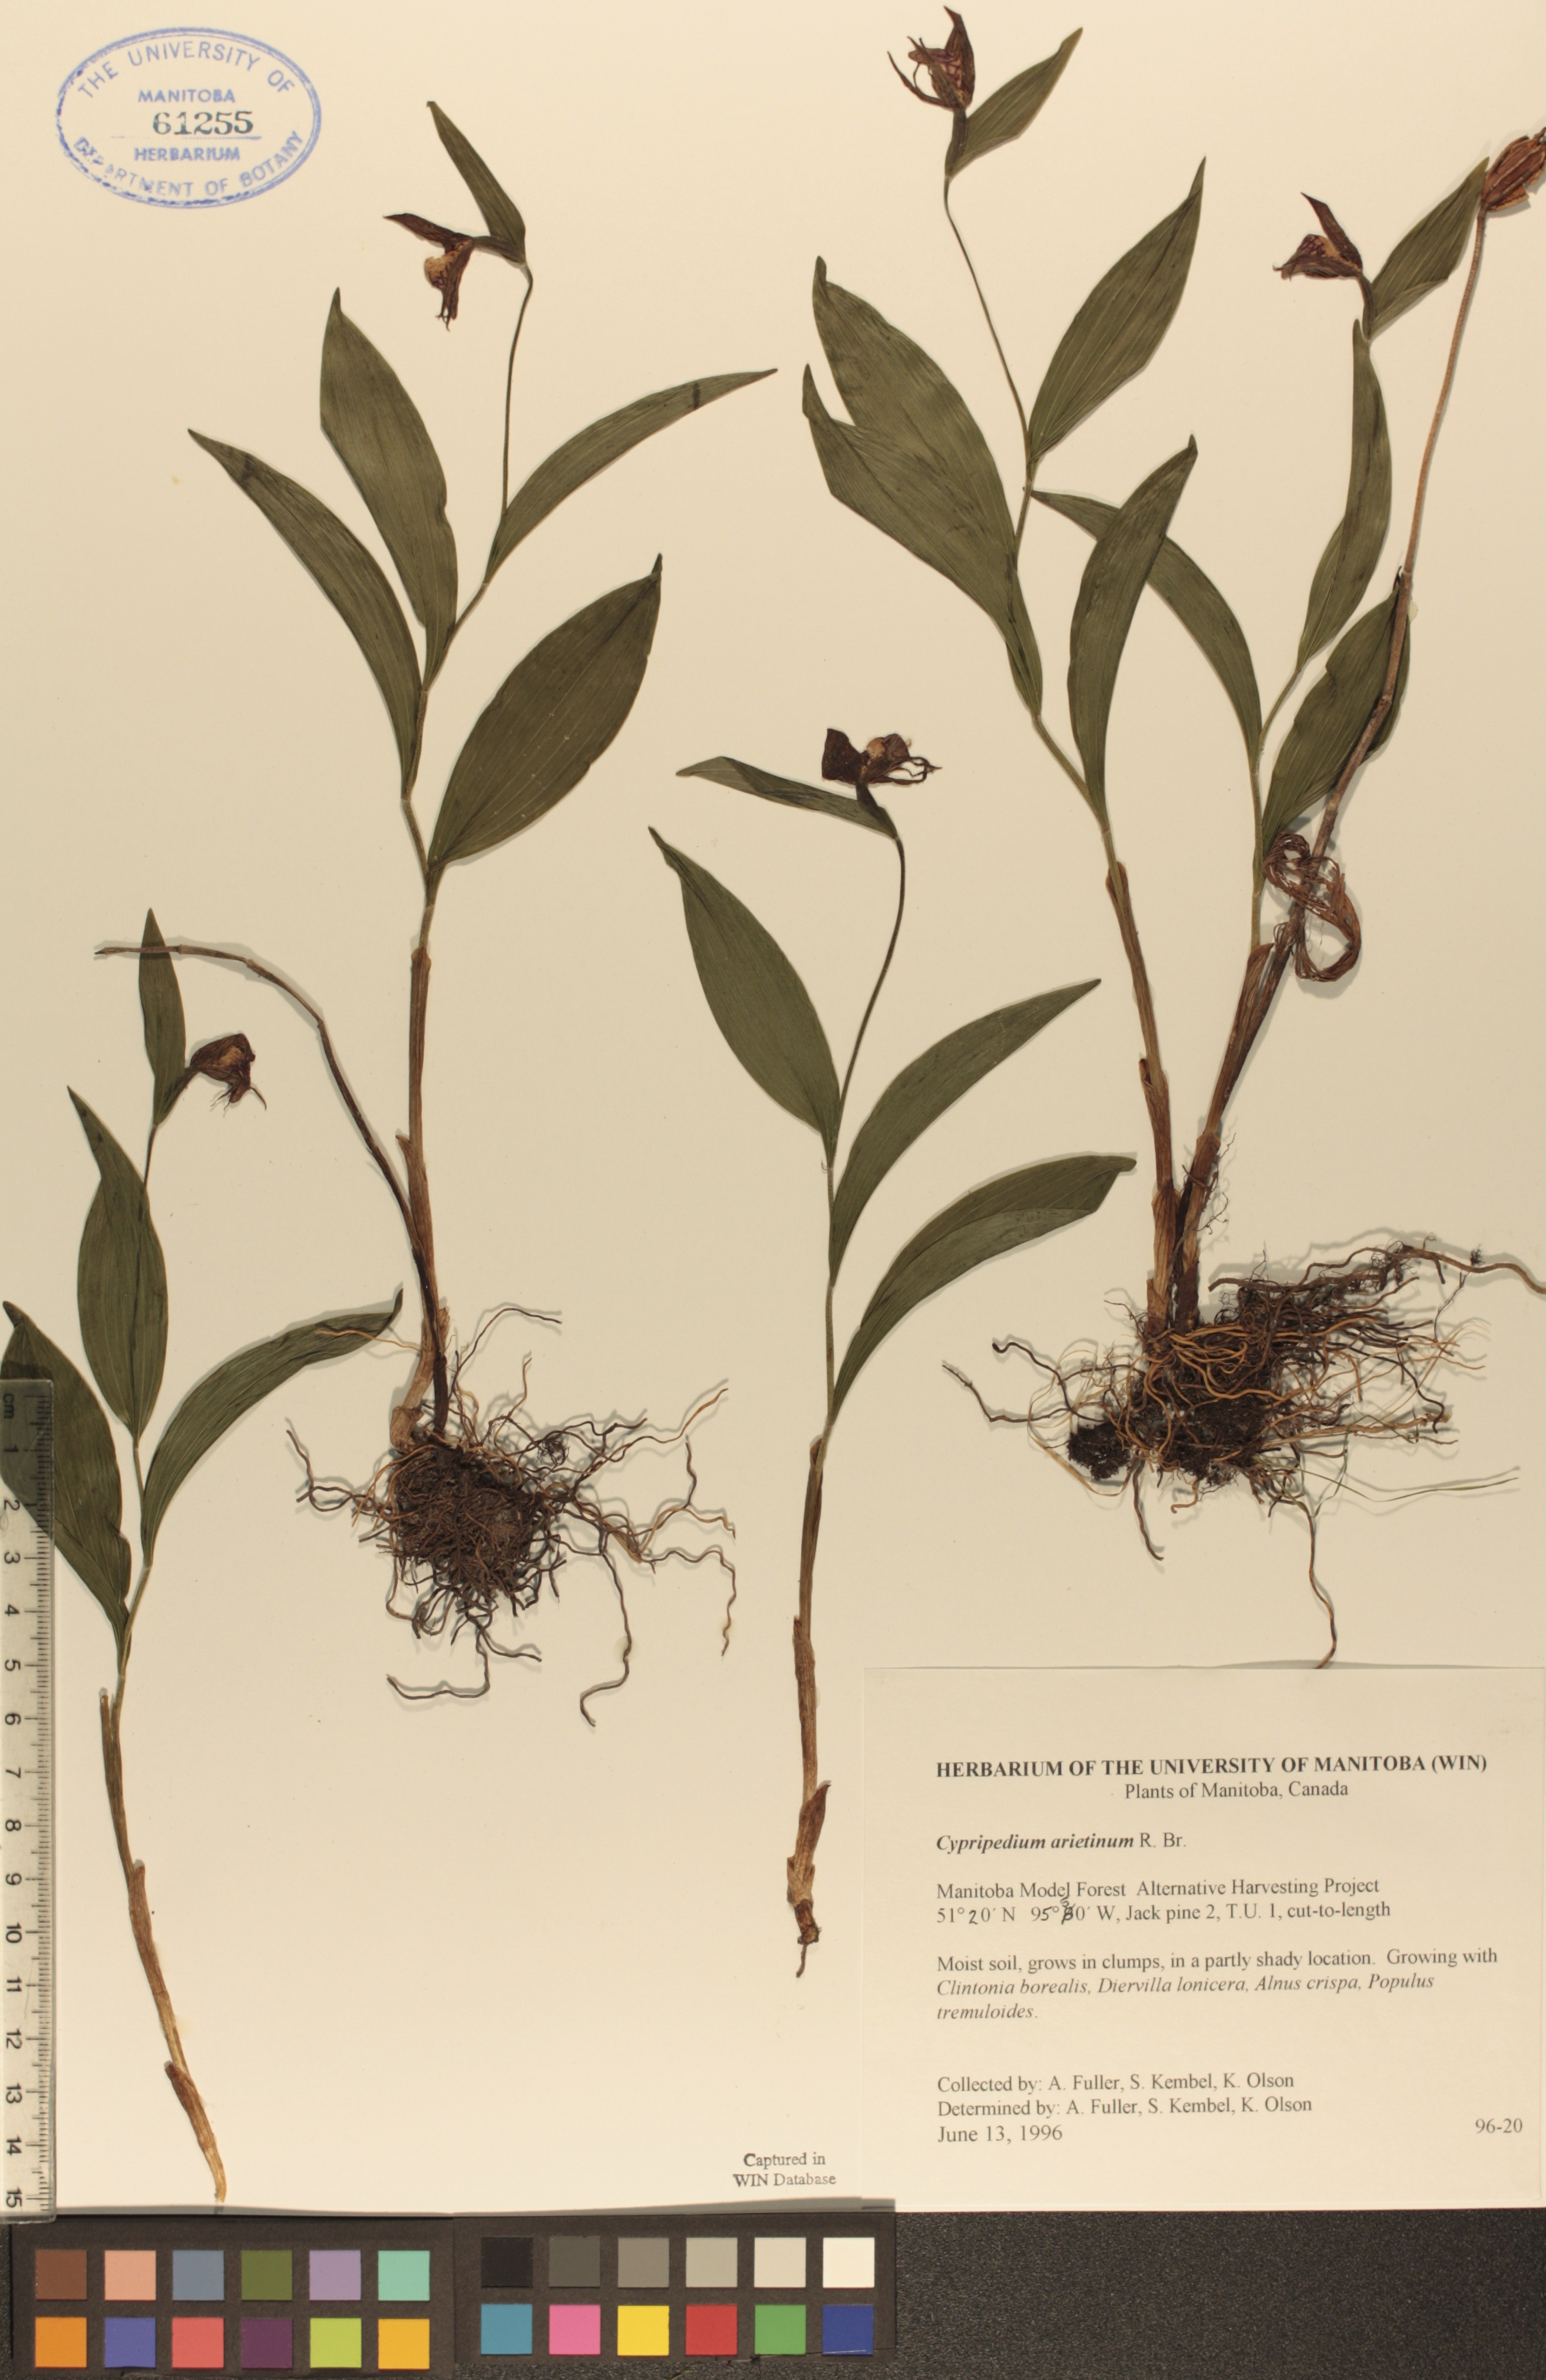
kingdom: Plantae
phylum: Tracheophyta
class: Liliopsida
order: Asparagales
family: Orchidaceae
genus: Cypripedium
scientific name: Cypripedium arietinum
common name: Ram's-head
